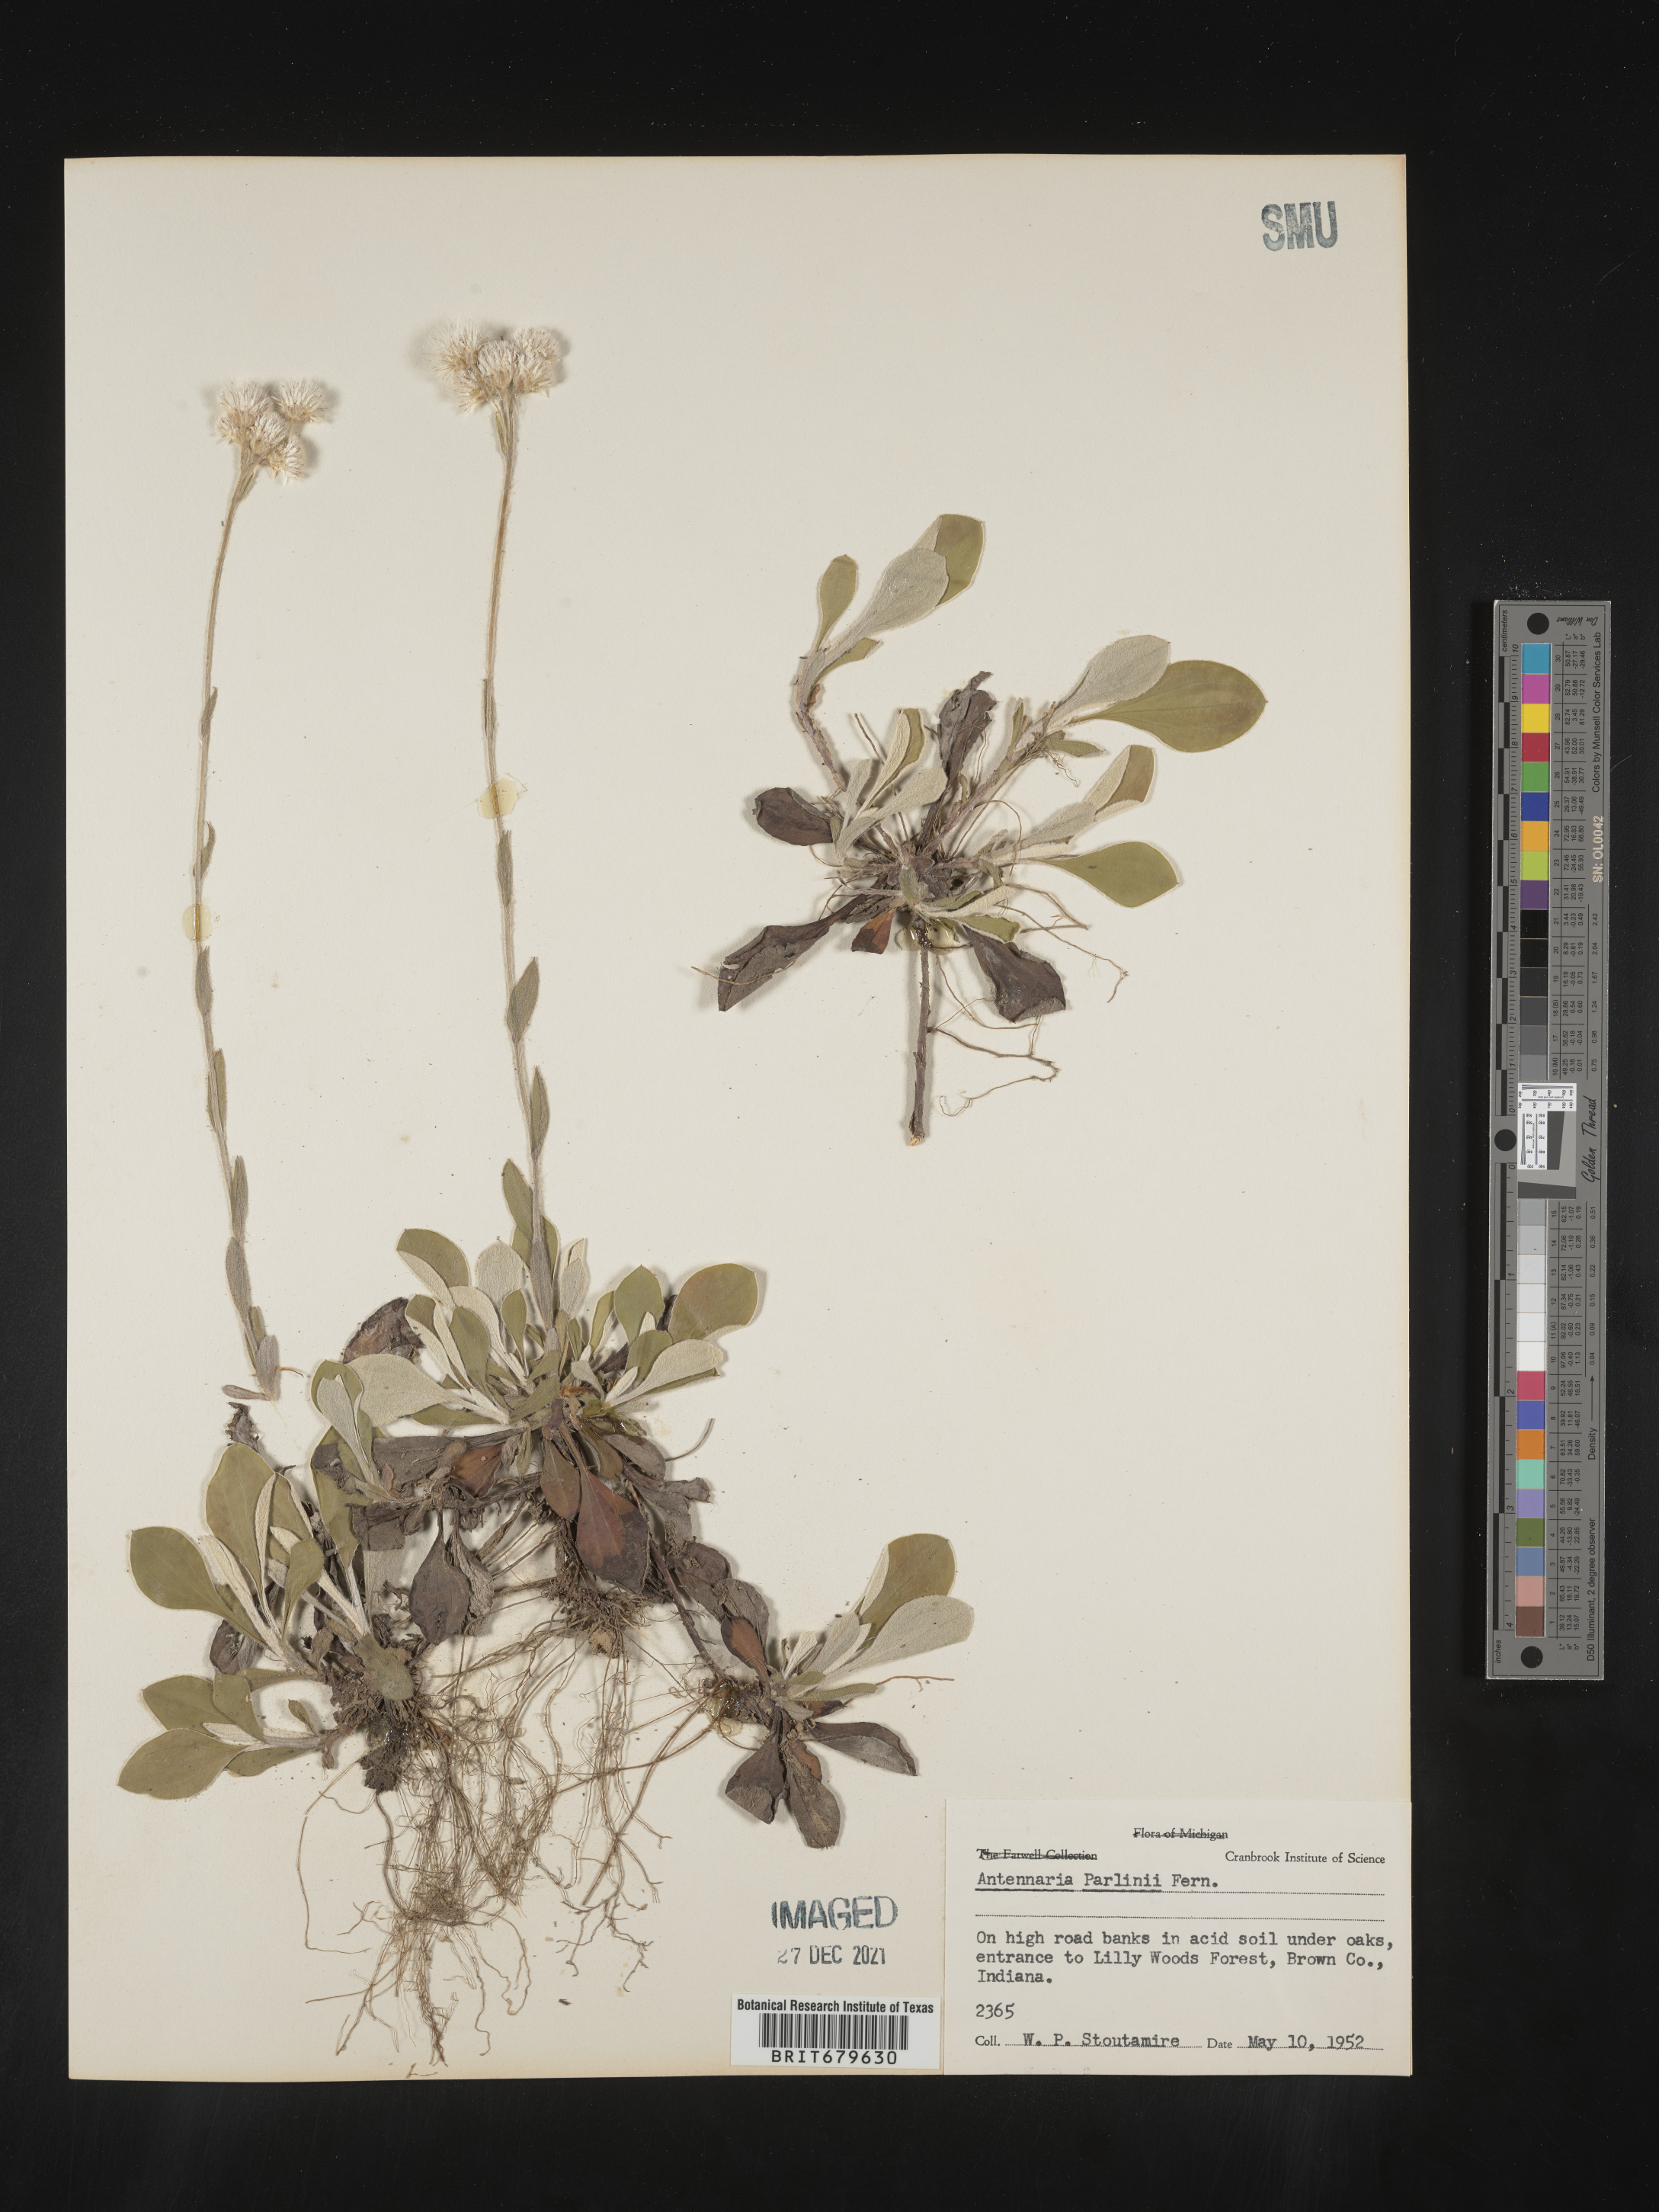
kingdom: Plantae
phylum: Tracheophyta
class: Magnoliopsida
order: Asterales
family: Asteraceae
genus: Antennaria
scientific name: Antennaria parlinii
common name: Parlin's pussytoes
